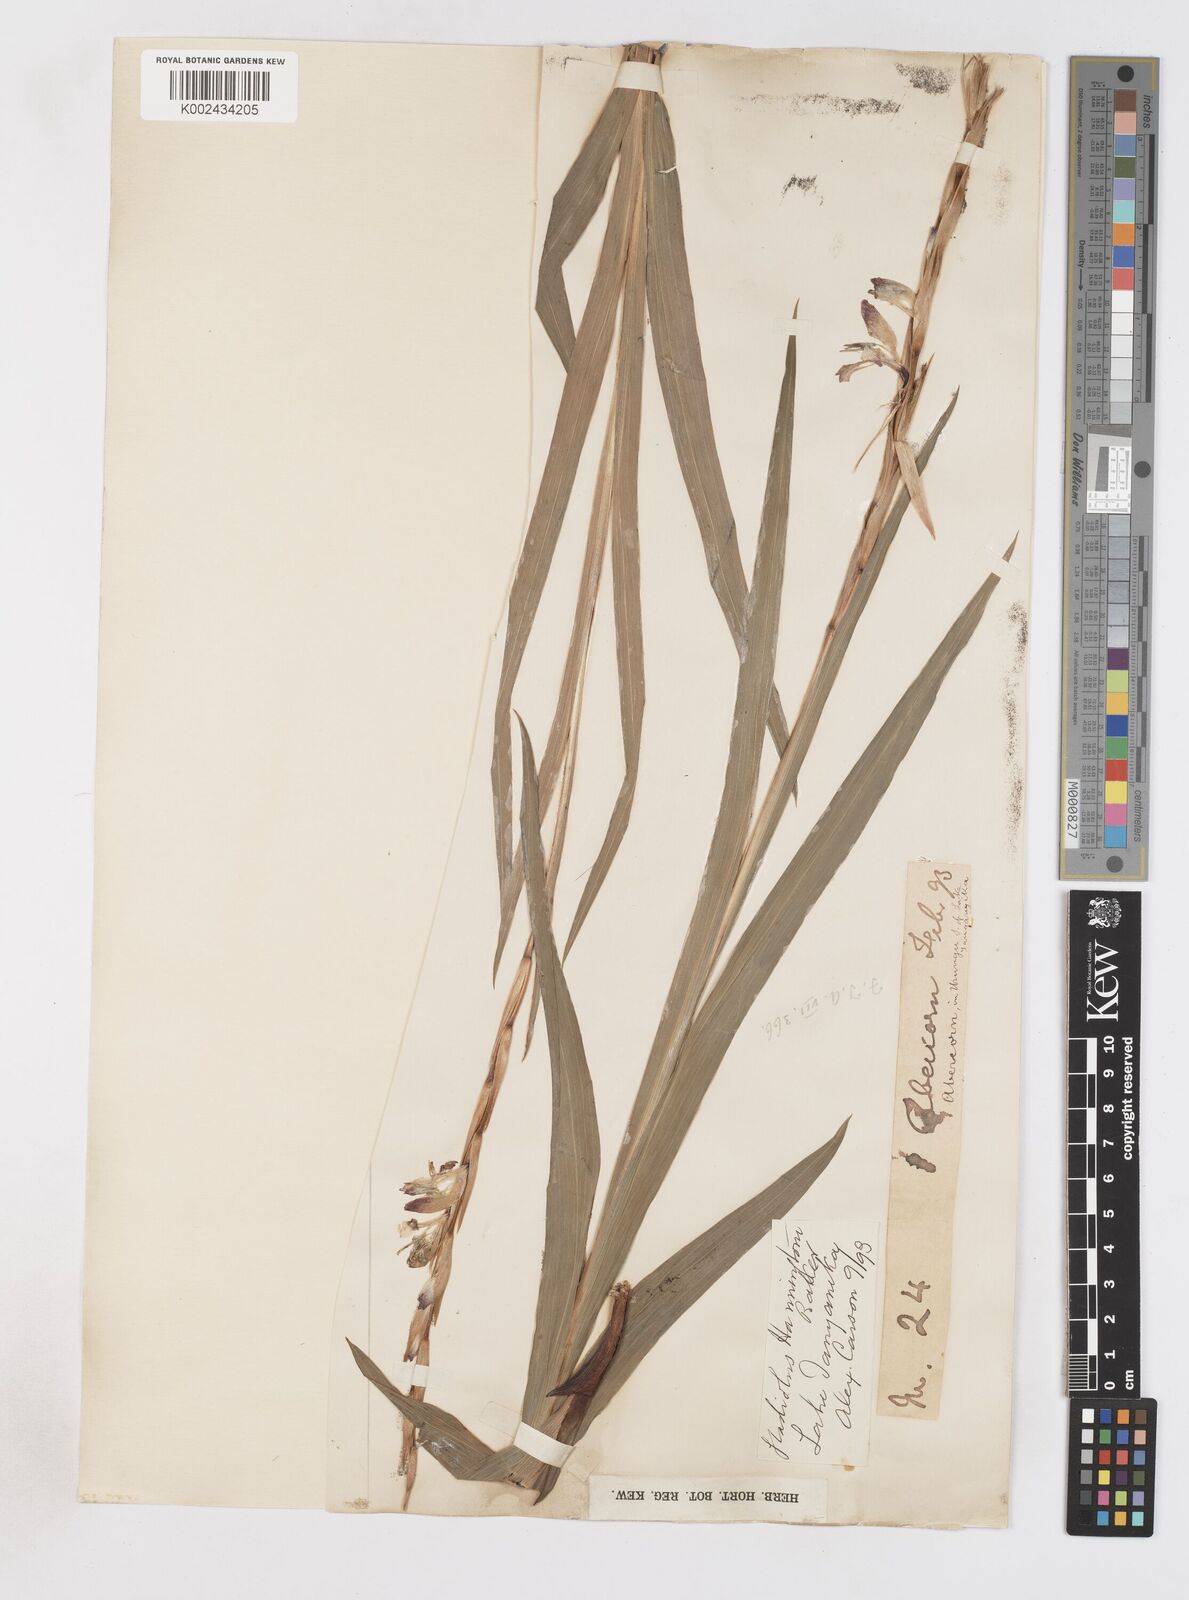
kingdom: Plantae
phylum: Tracheophyta
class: Liliopsida
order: Asparagales
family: Iridaceae
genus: Gladiolus
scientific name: Gladiolus gregarius
